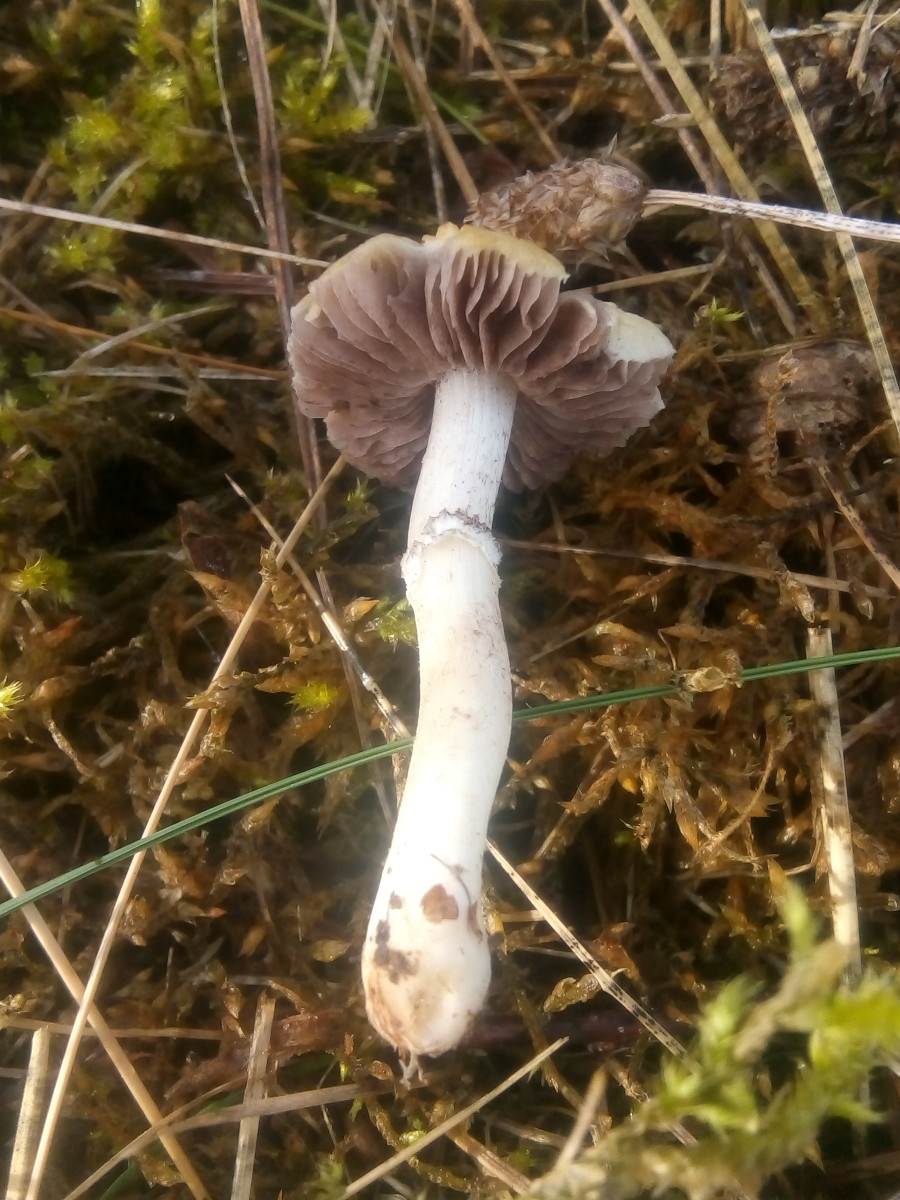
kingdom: Fungi
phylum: Basidiomycota
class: Agaricomycetes
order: Agaricales
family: Hymenogastraceae
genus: Psilocybe
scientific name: Psilocybe coronilla
